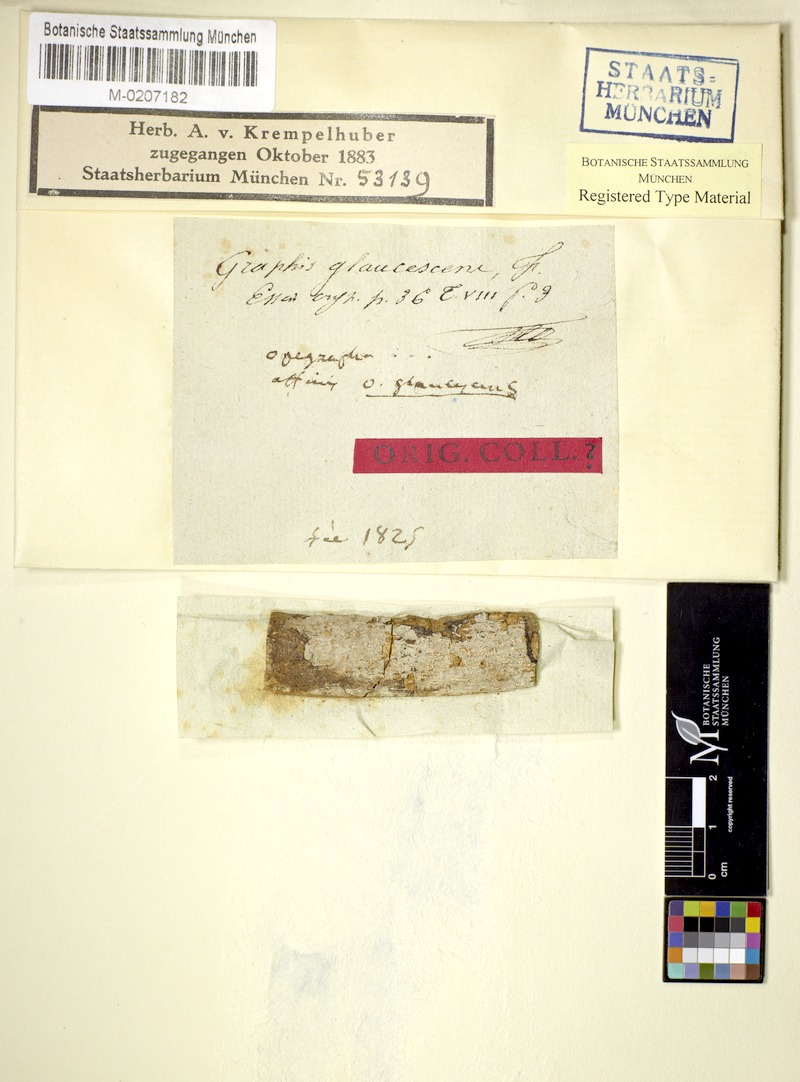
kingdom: Fungi
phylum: Ascomycota
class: Lecanoromycetes
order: Ostropales
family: Graphidaceae
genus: Graphis
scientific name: Graphis glaucescens
